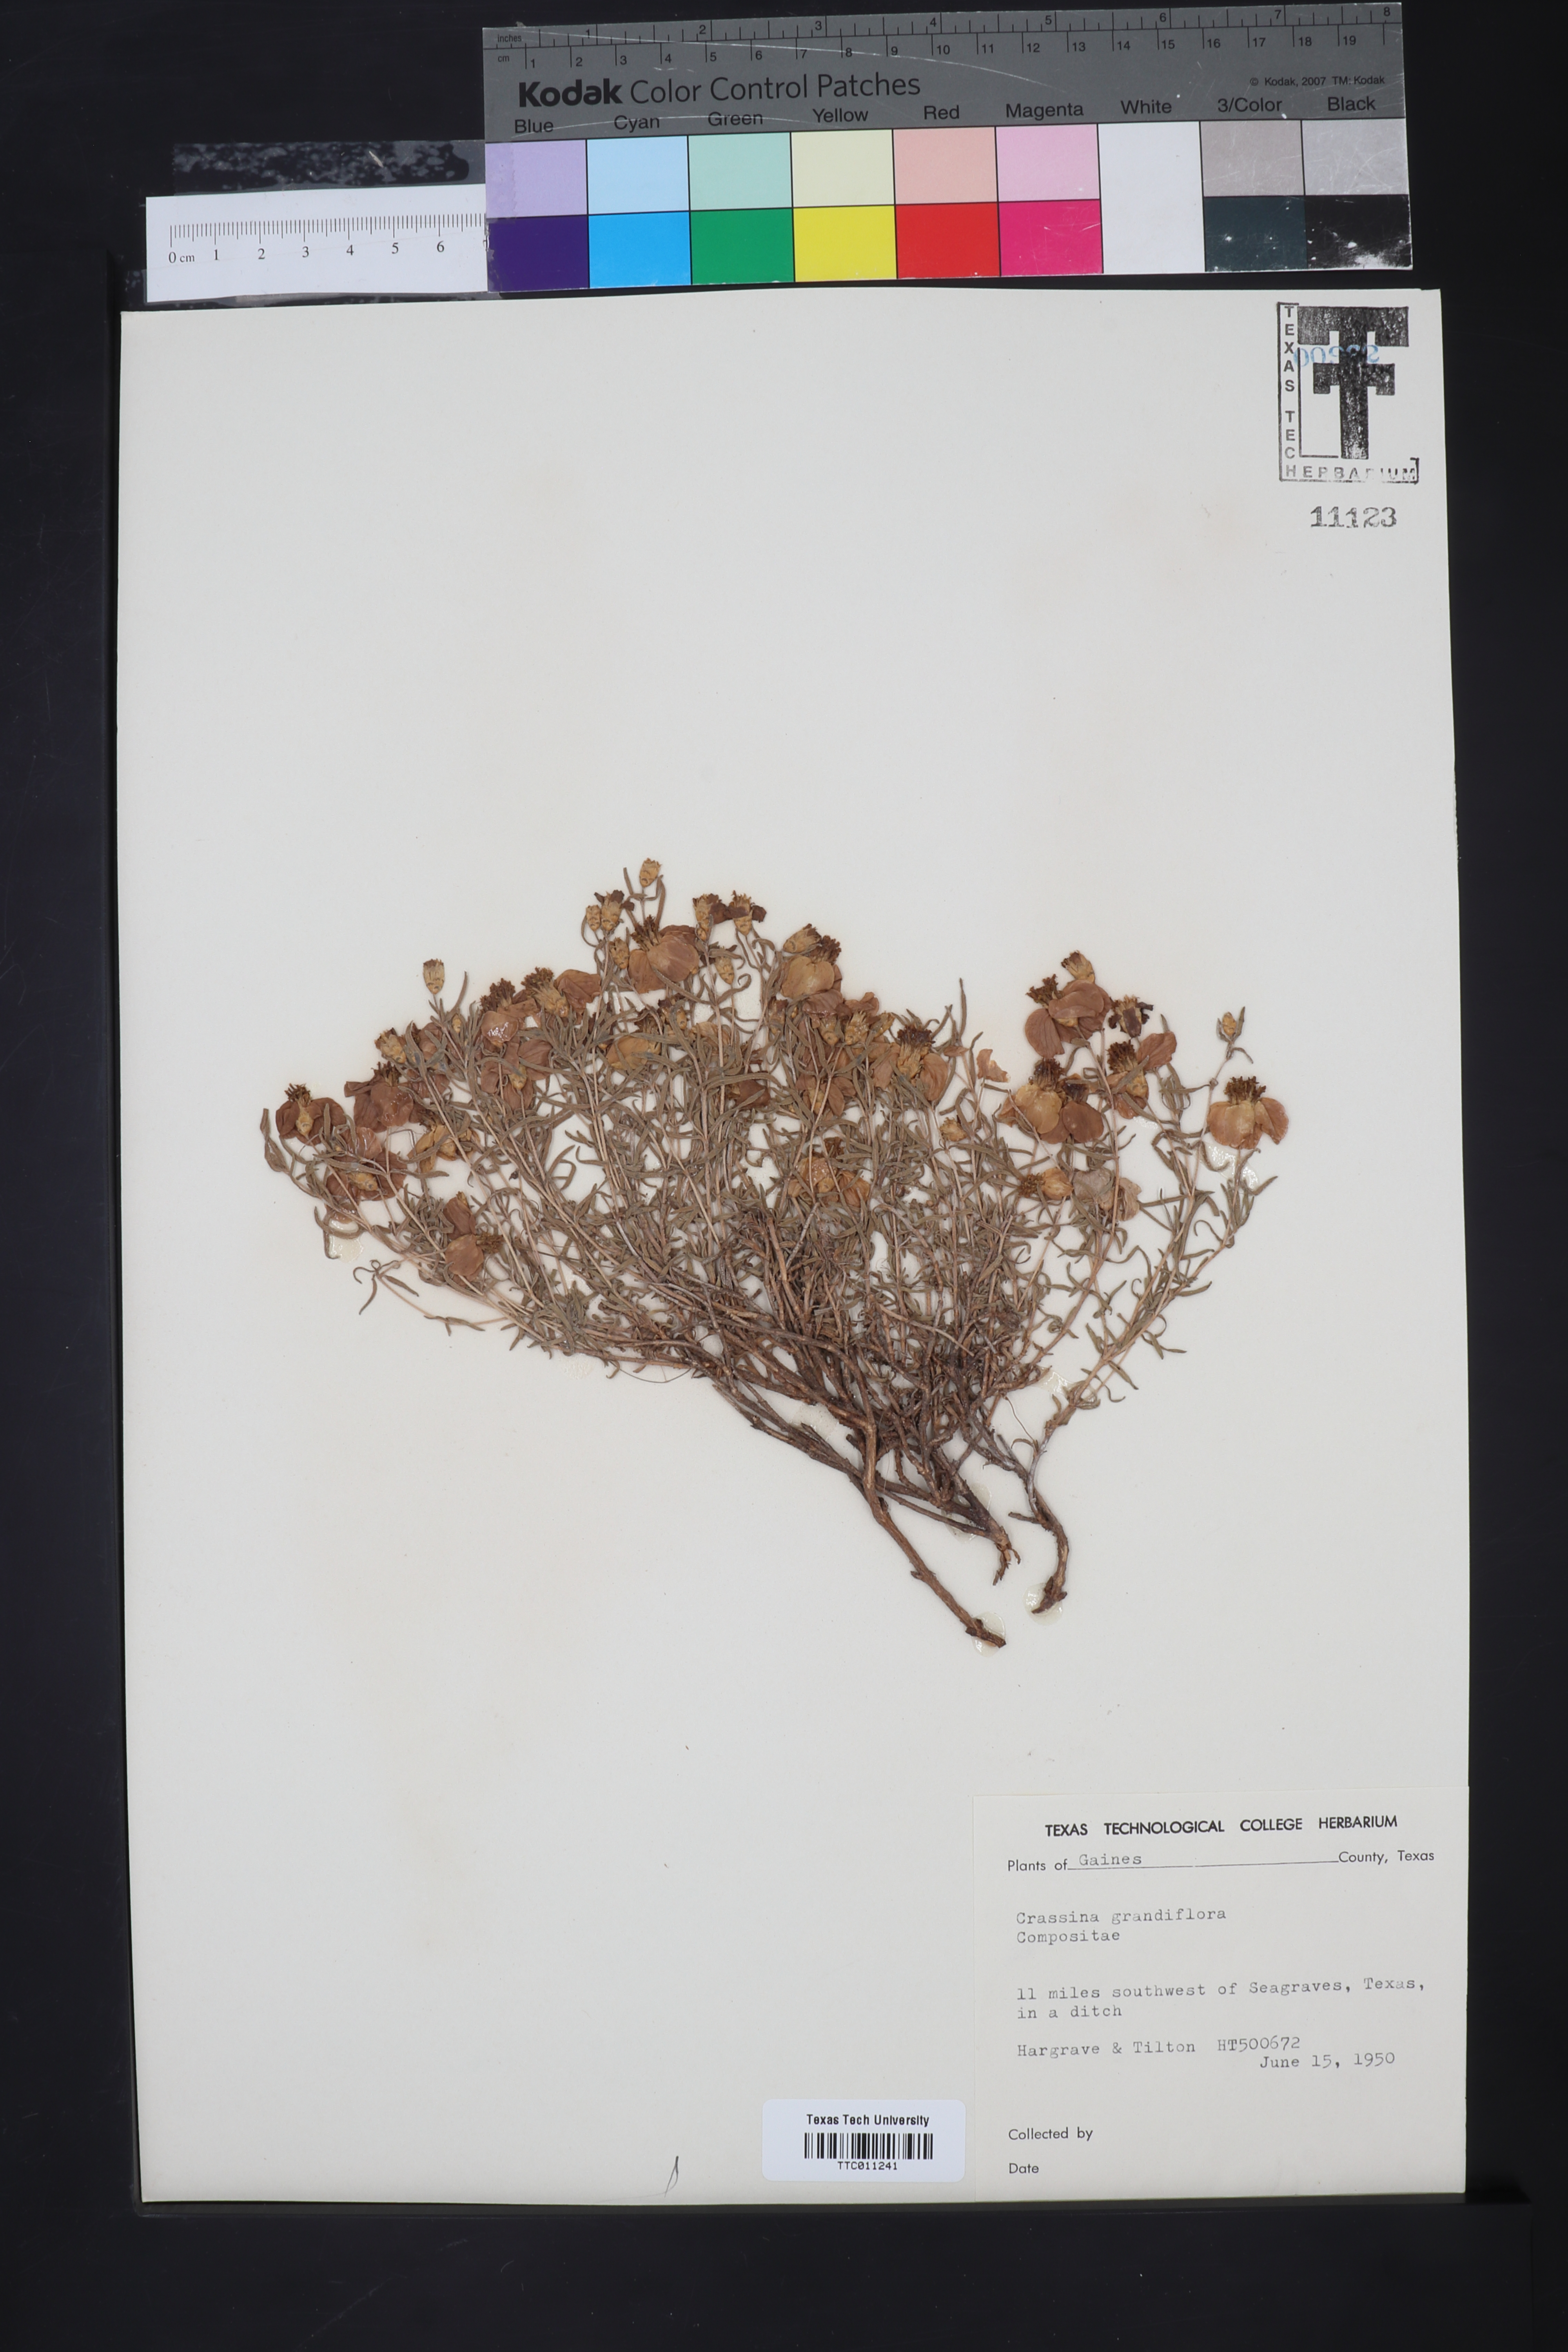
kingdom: Plantae
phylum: Tracheophyta
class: Magnoliopsida
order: Asterales
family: Asteraceae
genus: Zinnia
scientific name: Zinnia grandiflora
